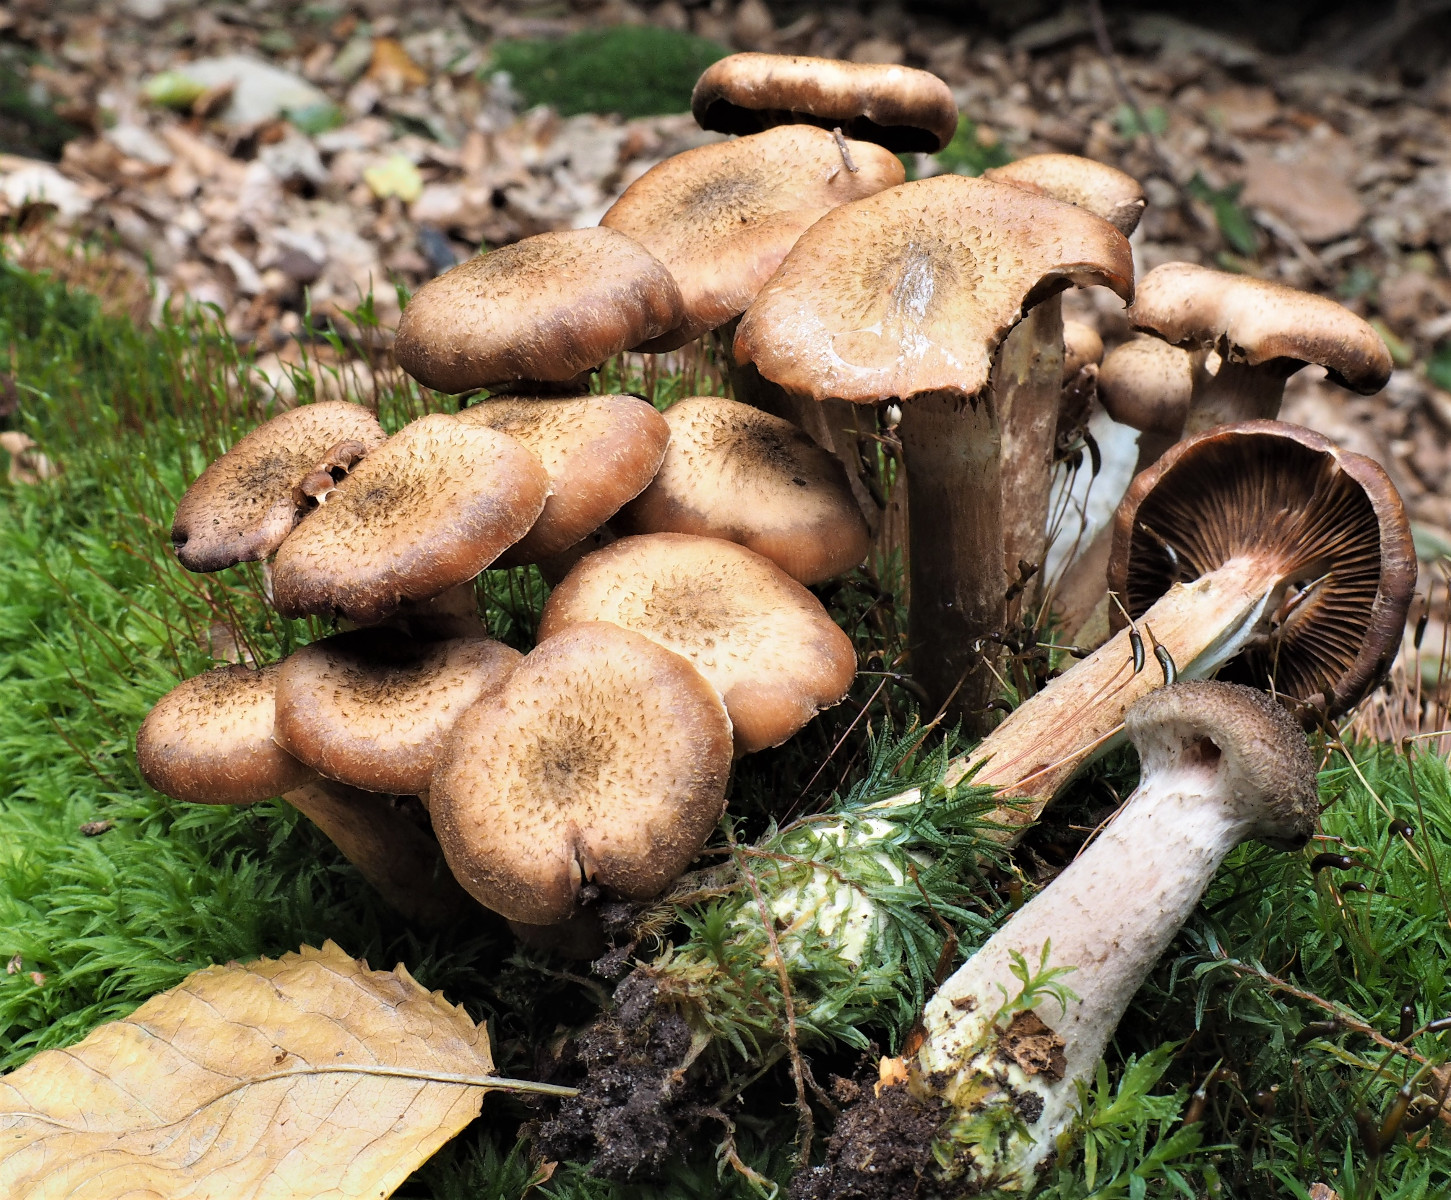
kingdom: Fungi
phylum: Basidiomycota
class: Agaricomycetes
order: Agaricales
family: Physalacriaceae
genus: Armillaria
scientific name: Armillaria lutea
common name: køllestokket honningsvamp
